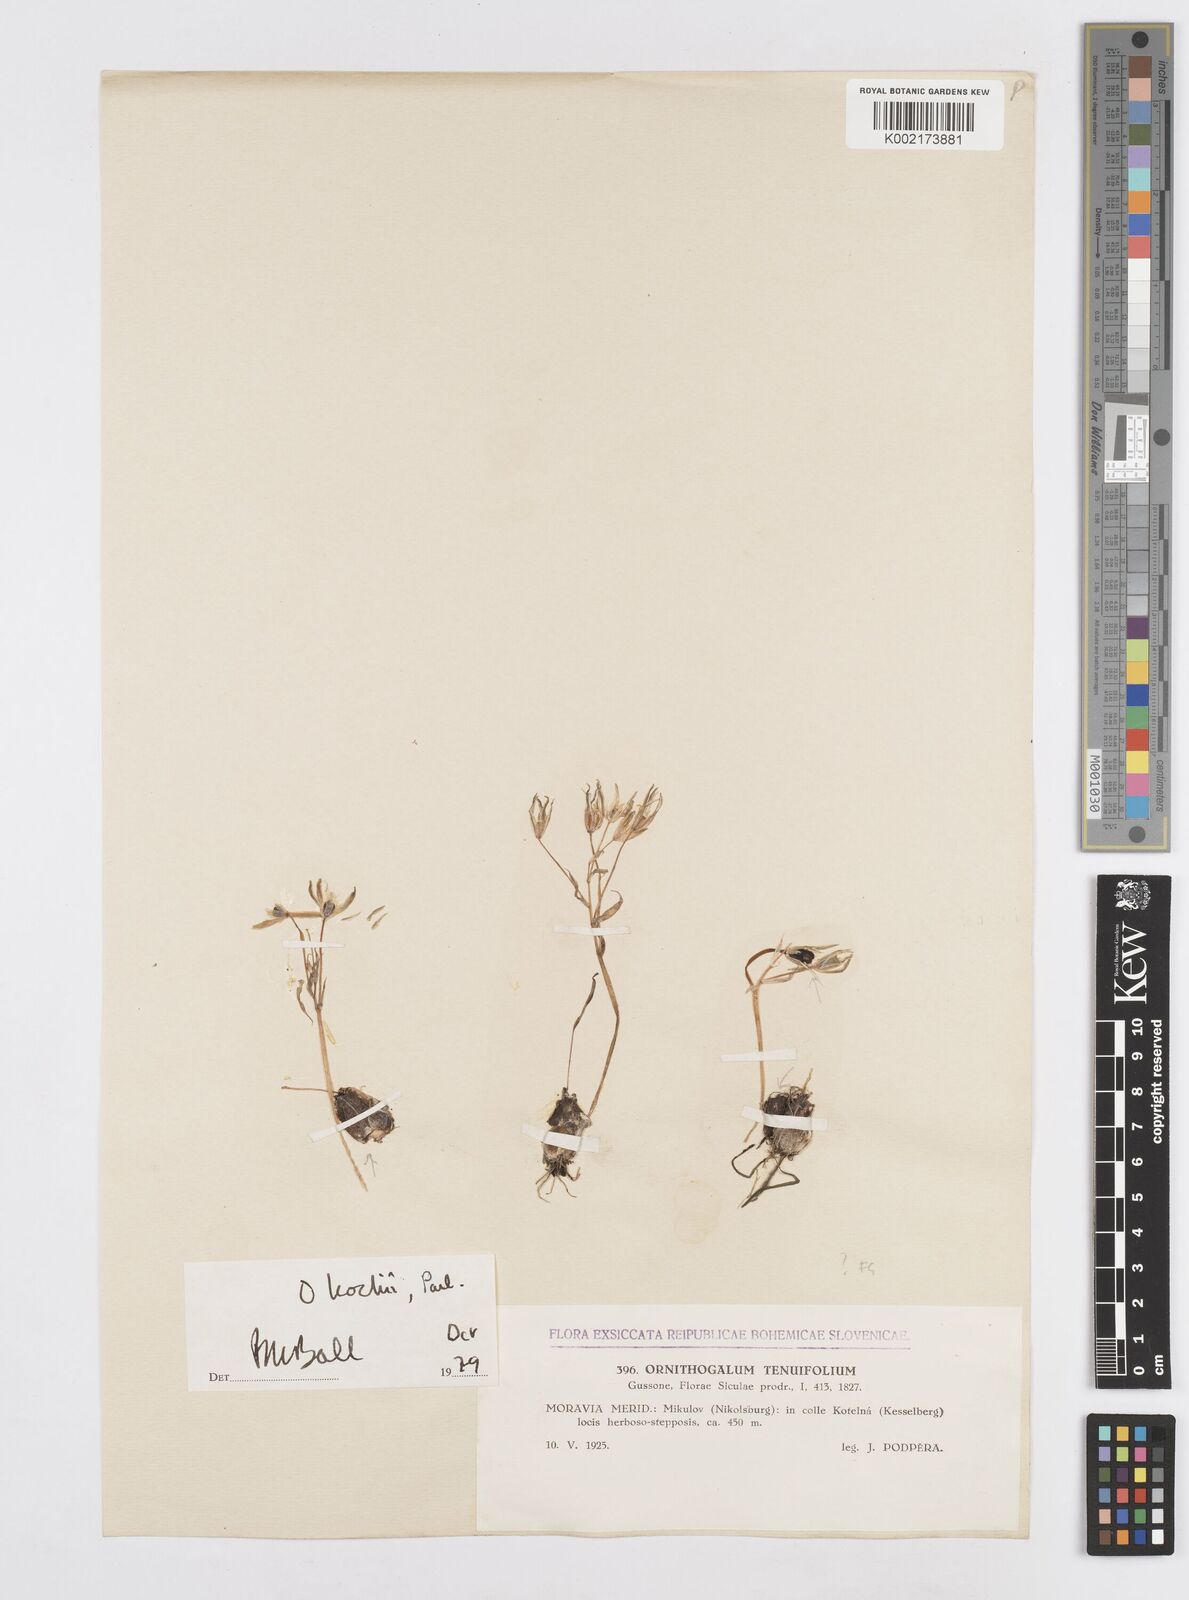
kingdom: Plantae
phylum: Tracheophyta
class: Liliopsida
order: Asparagales
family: Asparagaceae
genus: Ornithogalum
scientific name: Ornithogalum orthophyllum
